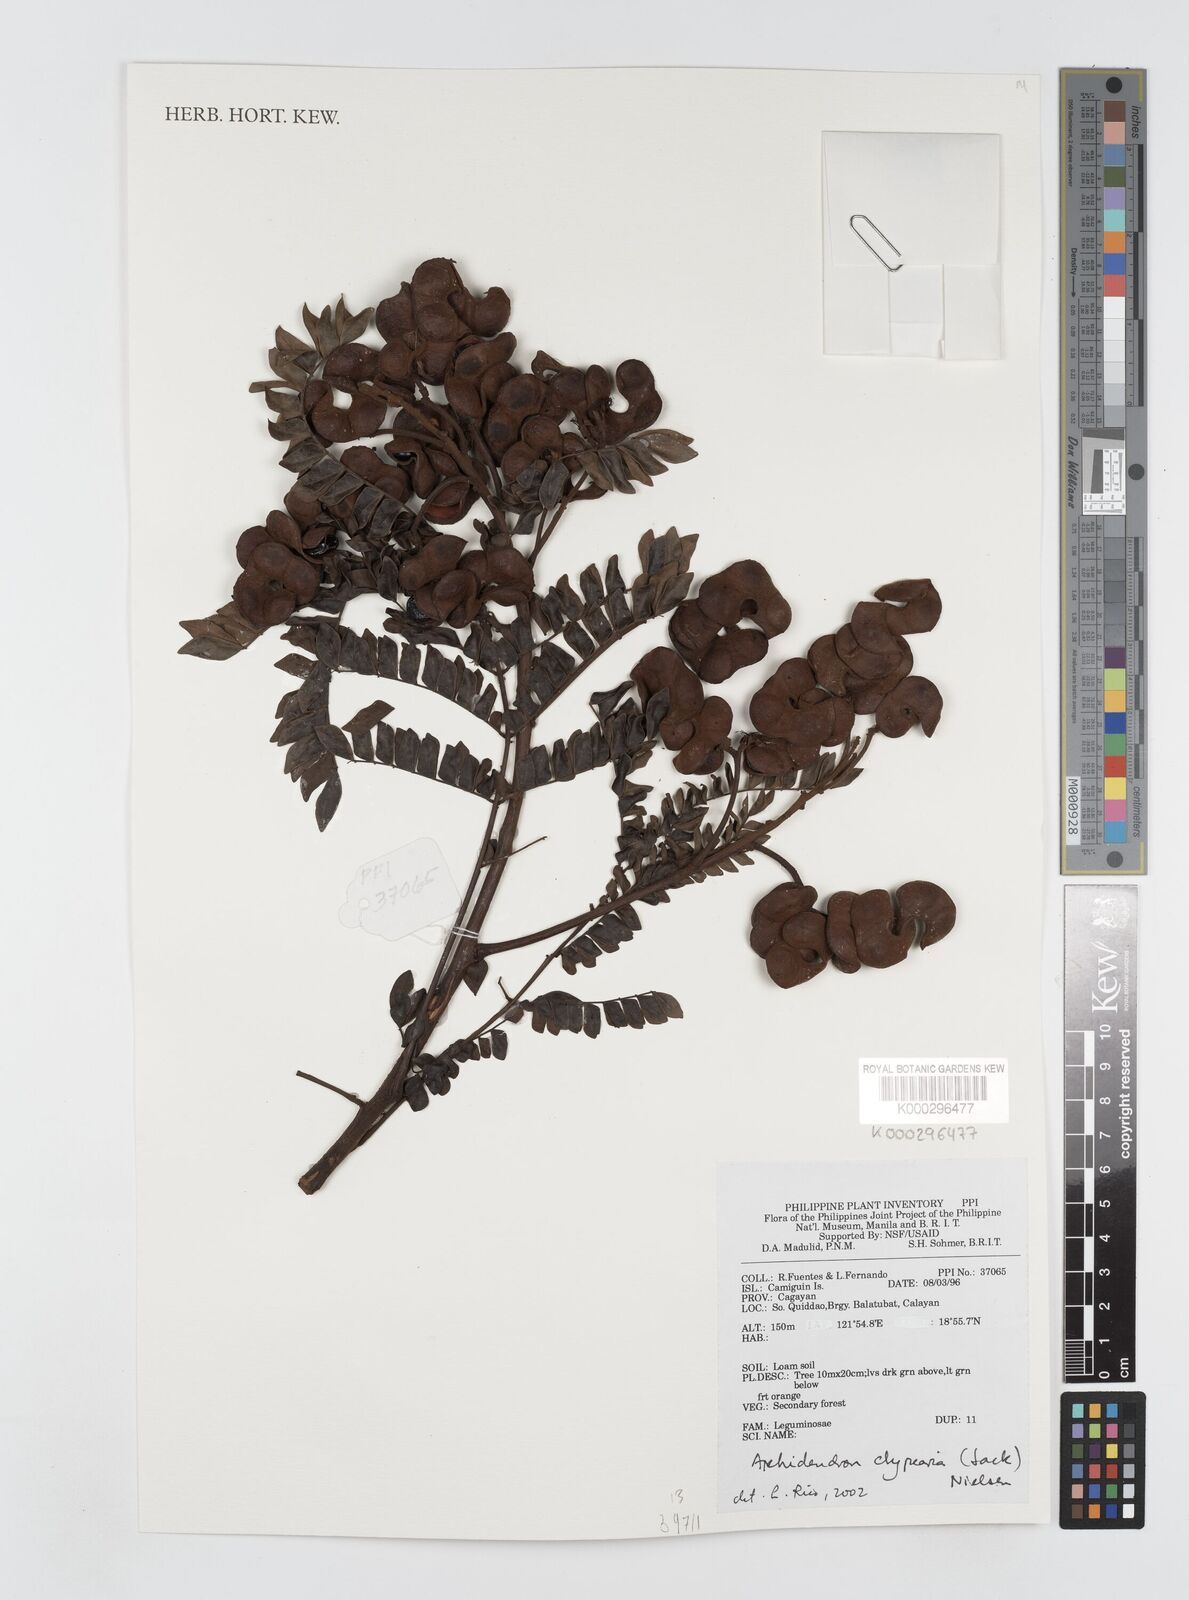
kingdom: Plantae
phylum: Tracheophyta
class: Magnoliopsida
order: Fabales
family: Fabaceae
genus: Archidendron
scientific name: Archidendron clypearia
